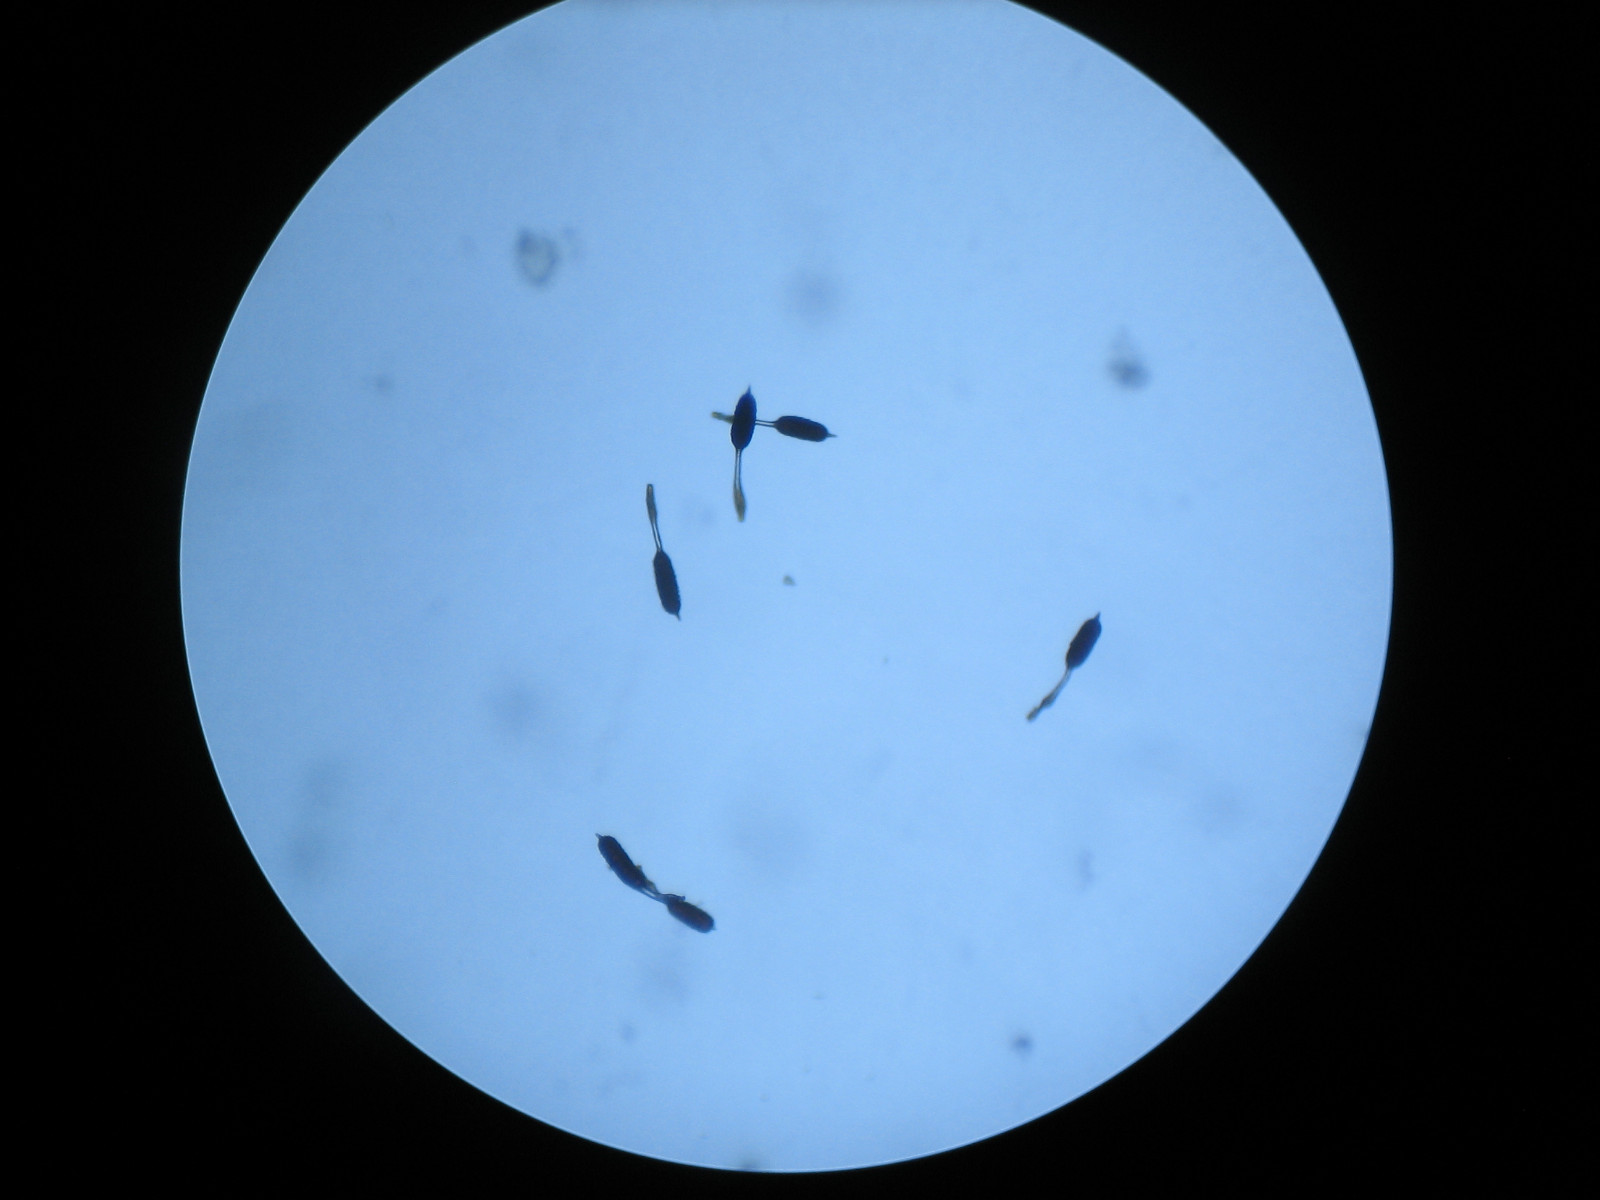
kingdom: Fungi
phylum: Basidiomycota
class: Pucciniomycetes
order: Pucciniales
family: Phragmidiaceae
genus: Phragmidium
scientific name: Phragmidium tuberculatum
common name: Rose rust
